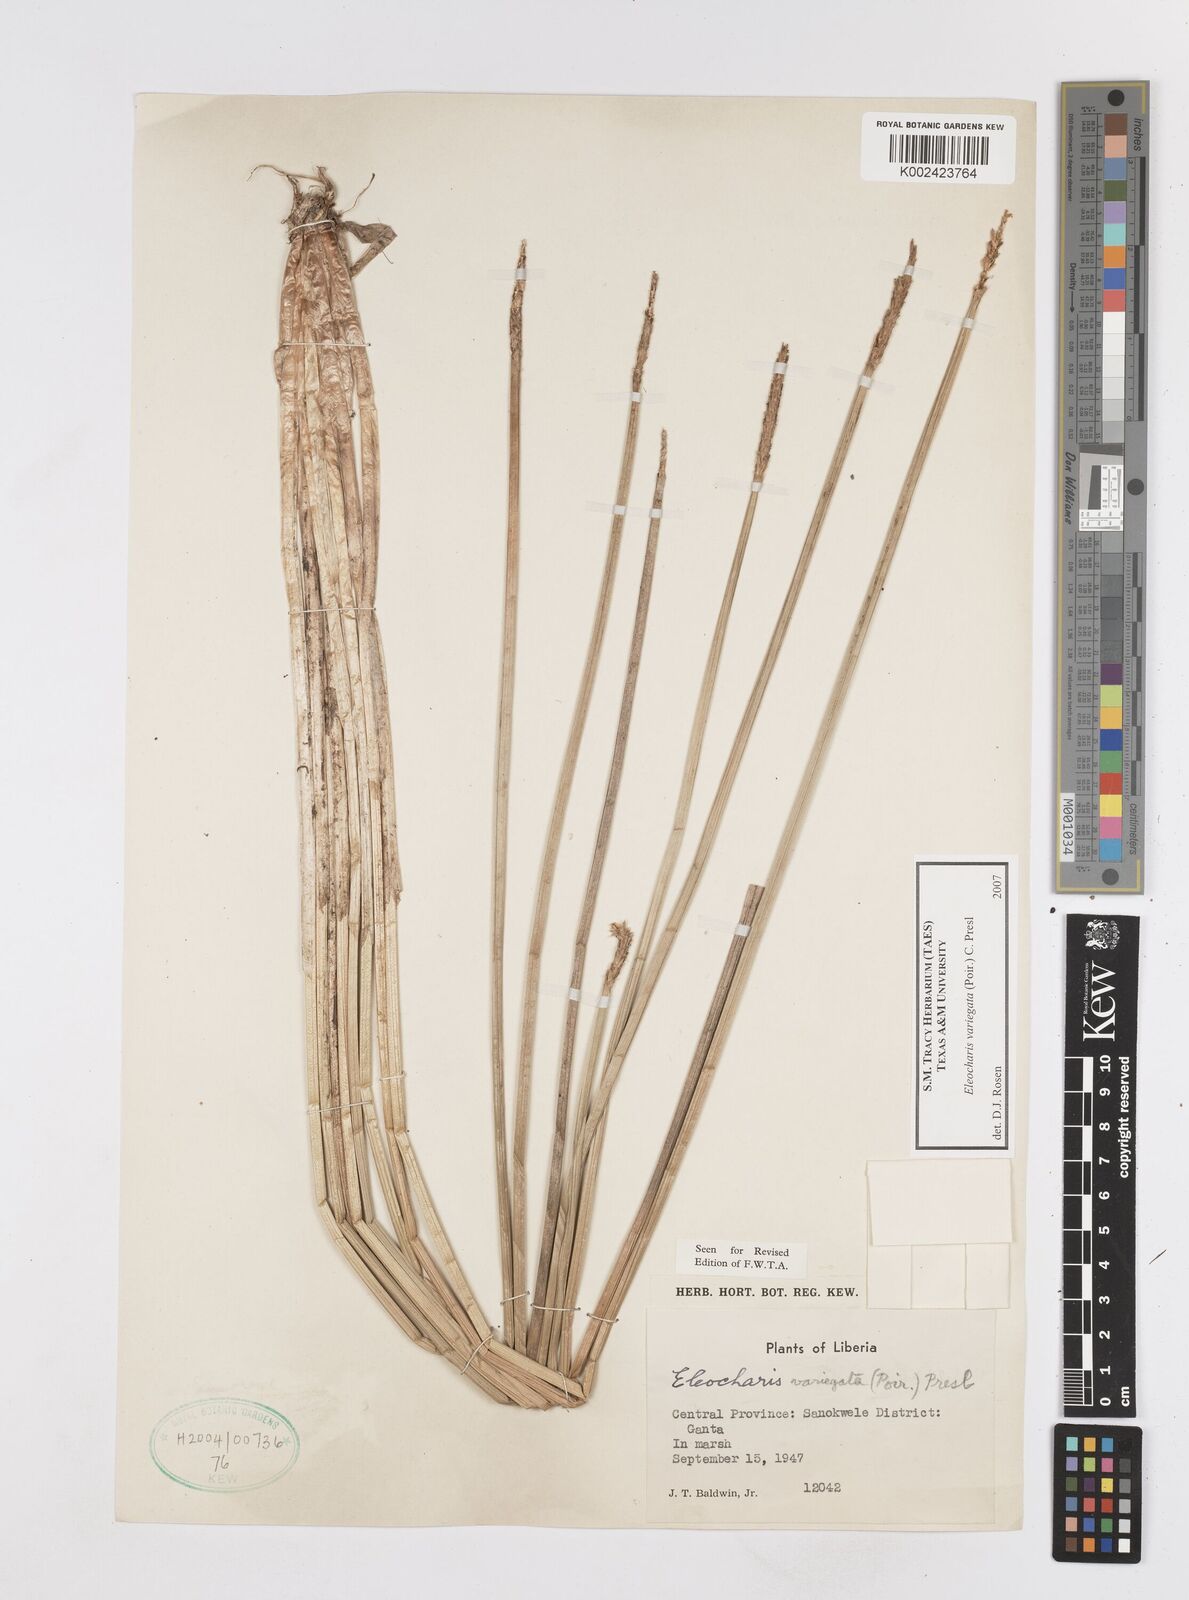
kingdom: Plantae
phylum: Tracheophyta
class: Liliopsida
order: Poales
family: Cyperaceae
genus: Eleocharis
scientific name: Eleocharis variegata
